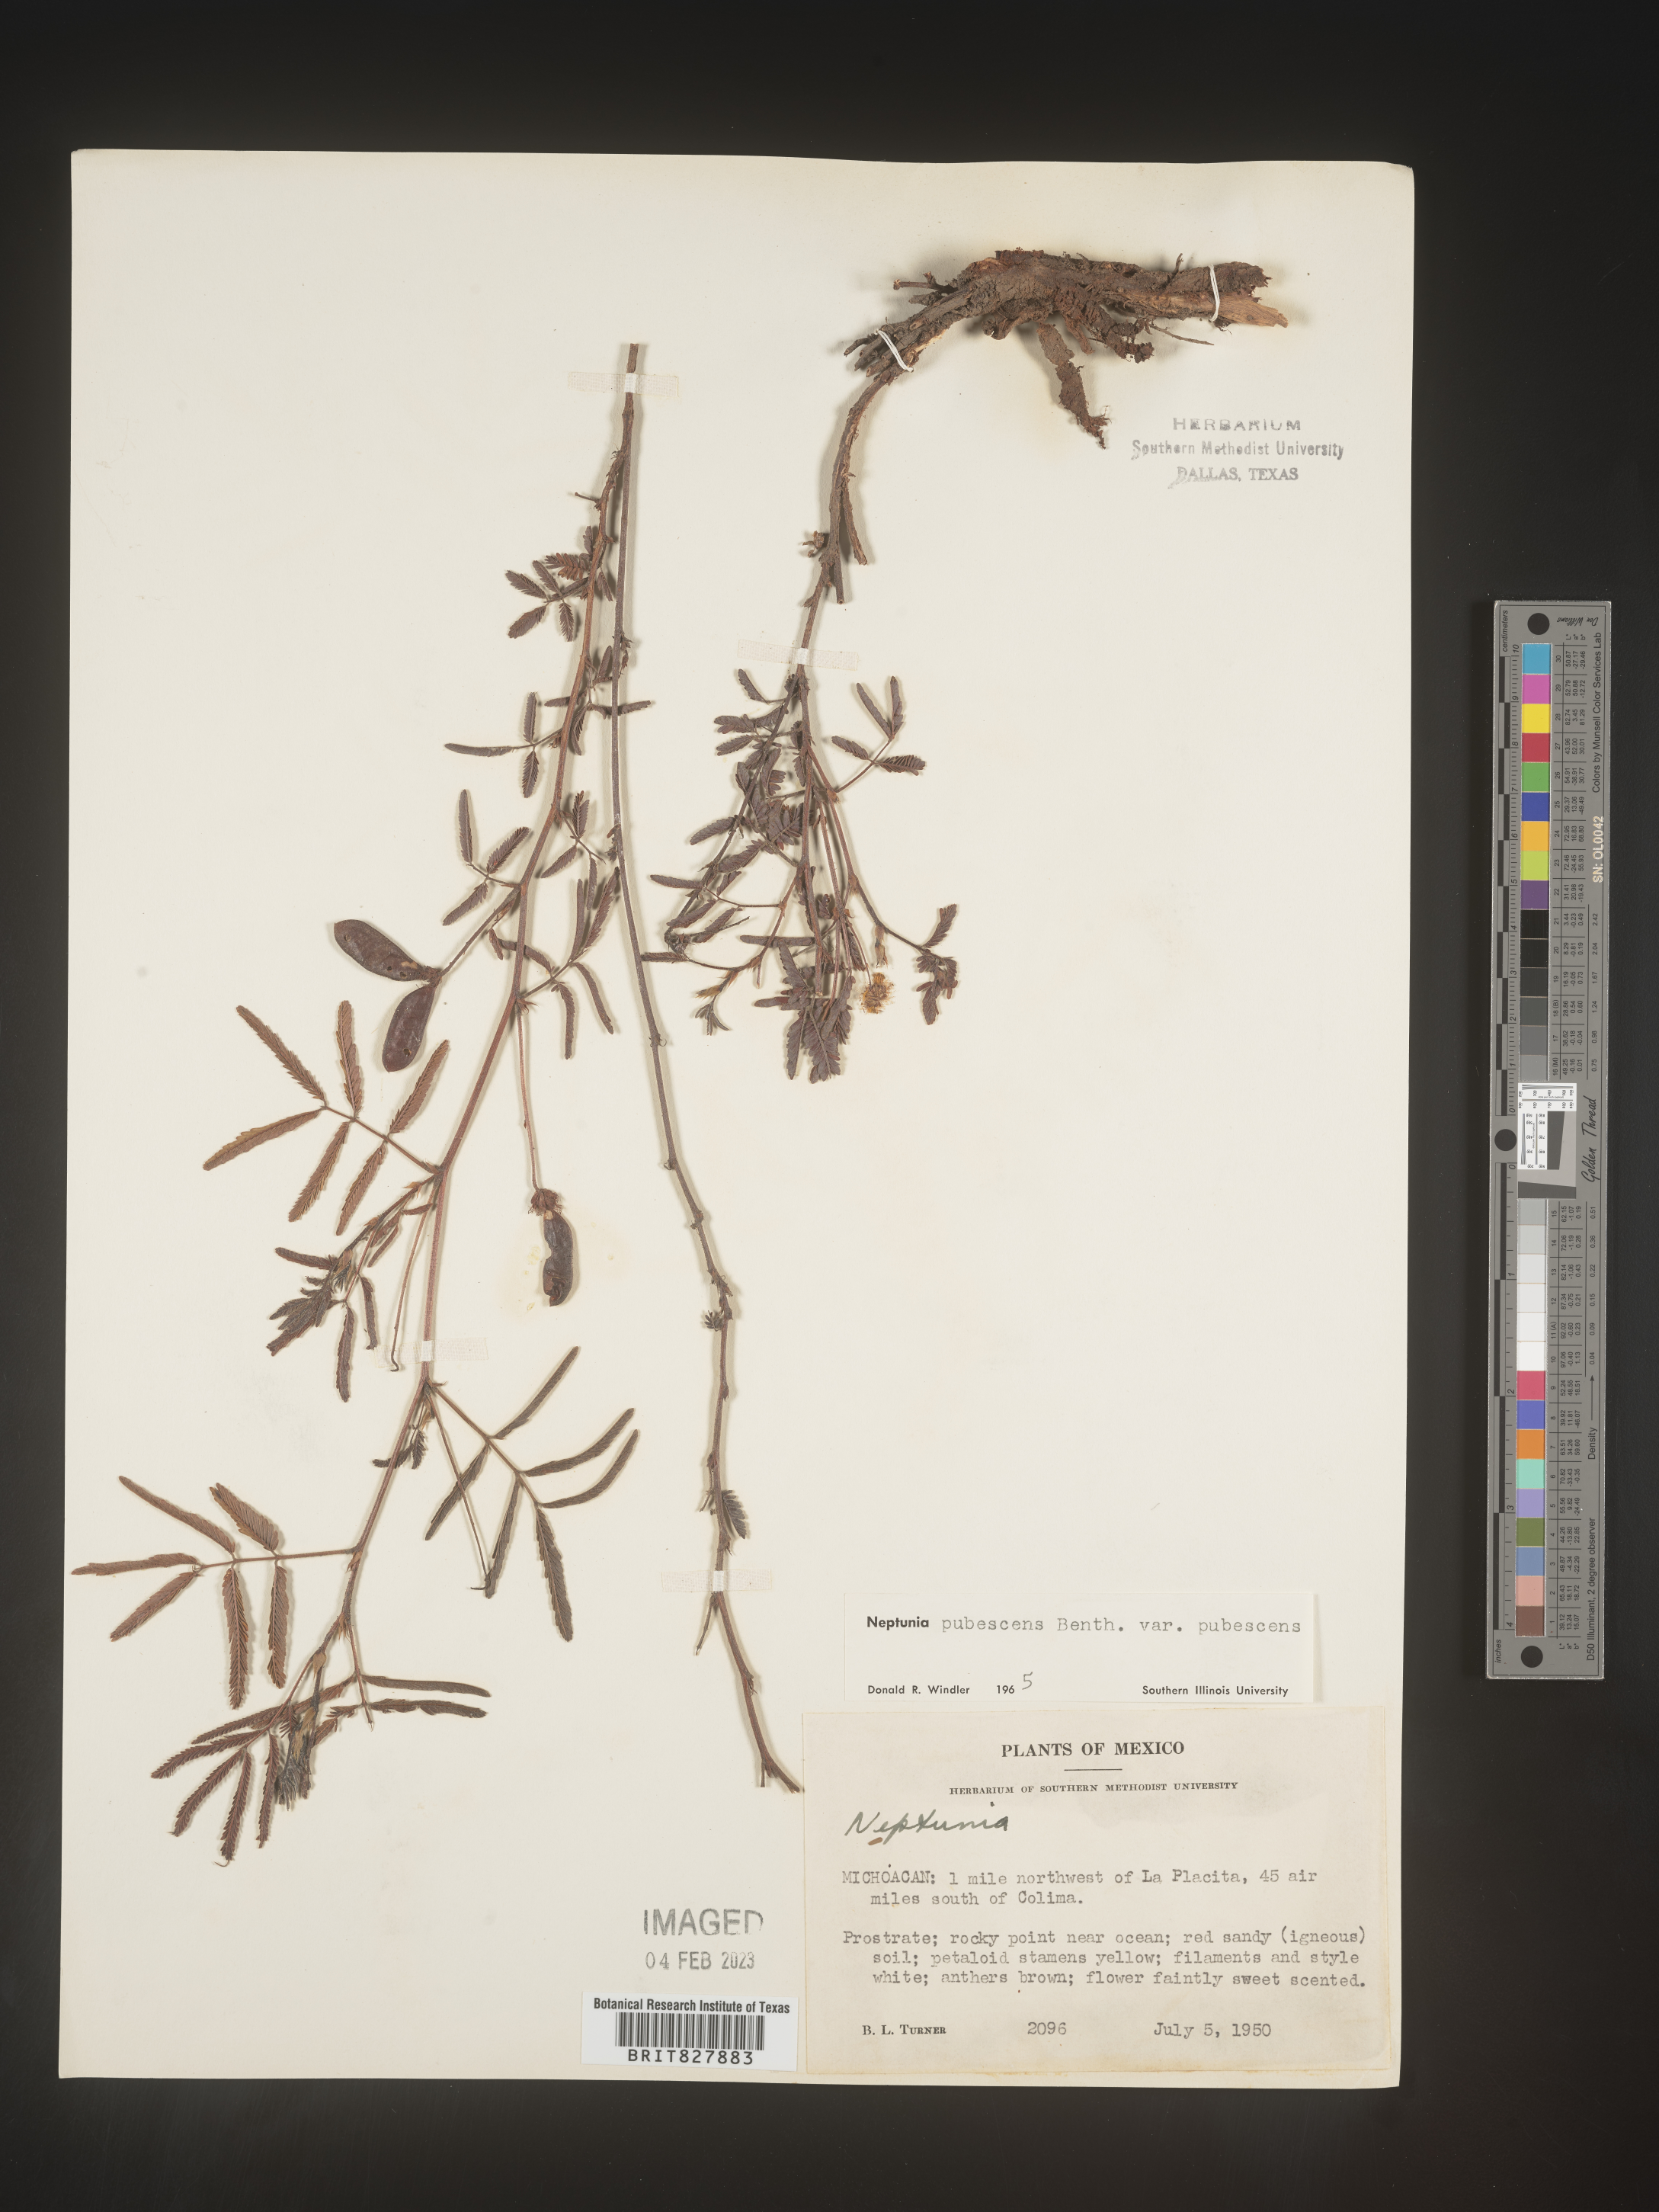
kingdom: Plantae
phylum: Tracheophyta
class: Magnoliopsida
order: Fabales
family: Fabaceae
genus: Neptunia
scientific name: Neptunia
